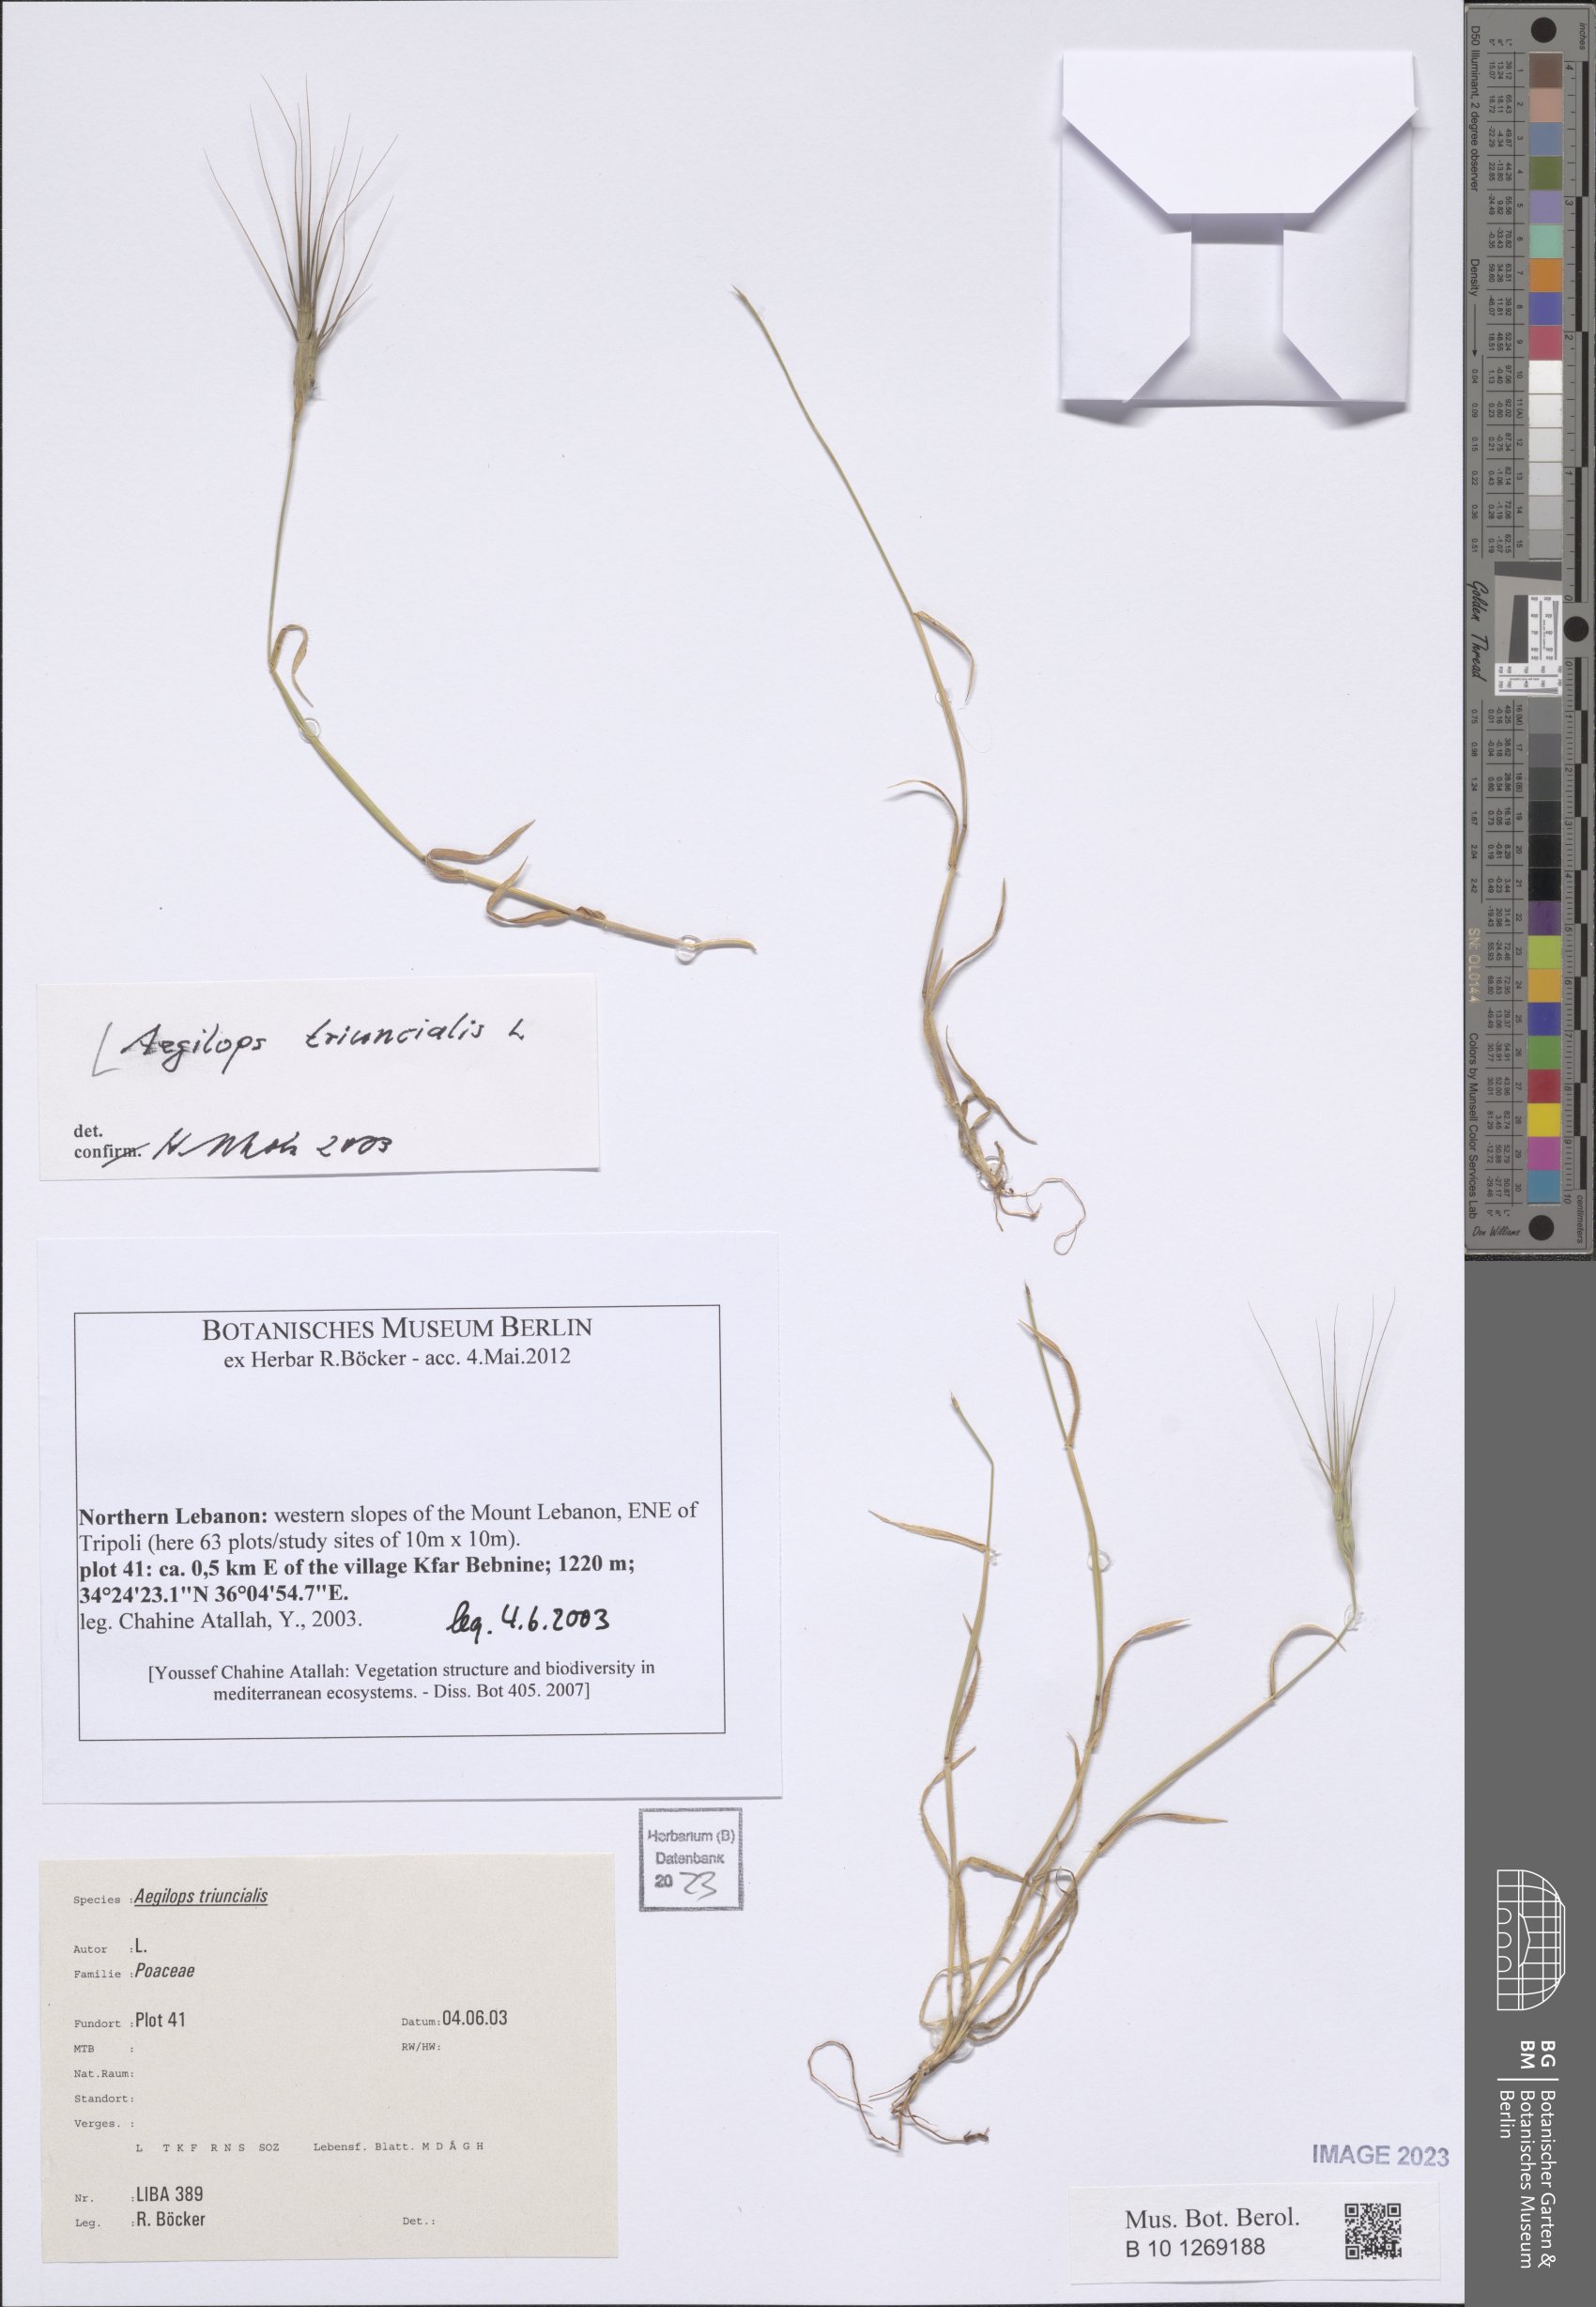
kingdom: Plantae
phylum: Tracheophyta
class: Liliopsida
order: Poales
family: Poaceae
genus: Aegilops
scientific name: Aegilops triuncialis
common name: Barb goat grass
